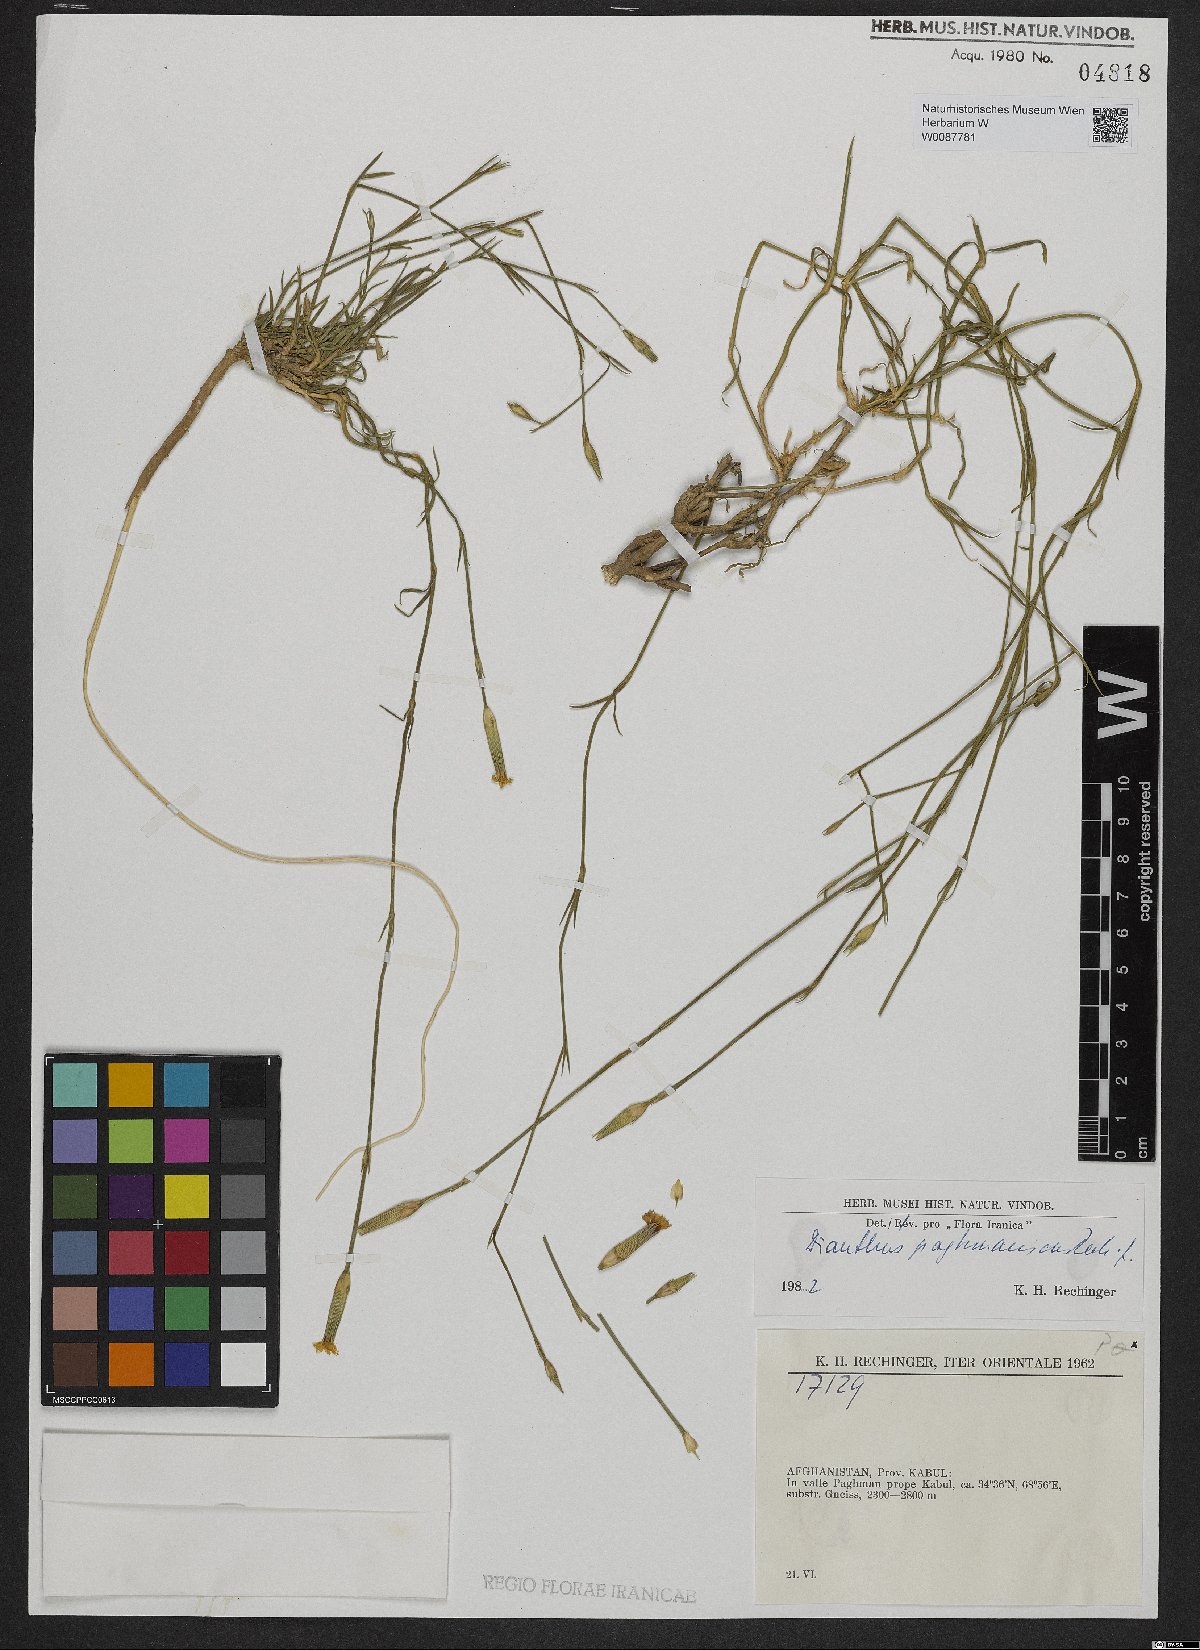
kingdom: Plantae
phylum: Tracheophyta
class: Magnoliopsida
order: Caryophyllales
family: Caryophyllaceae
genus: Dianthus
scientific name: Dianthus paghmanicus
